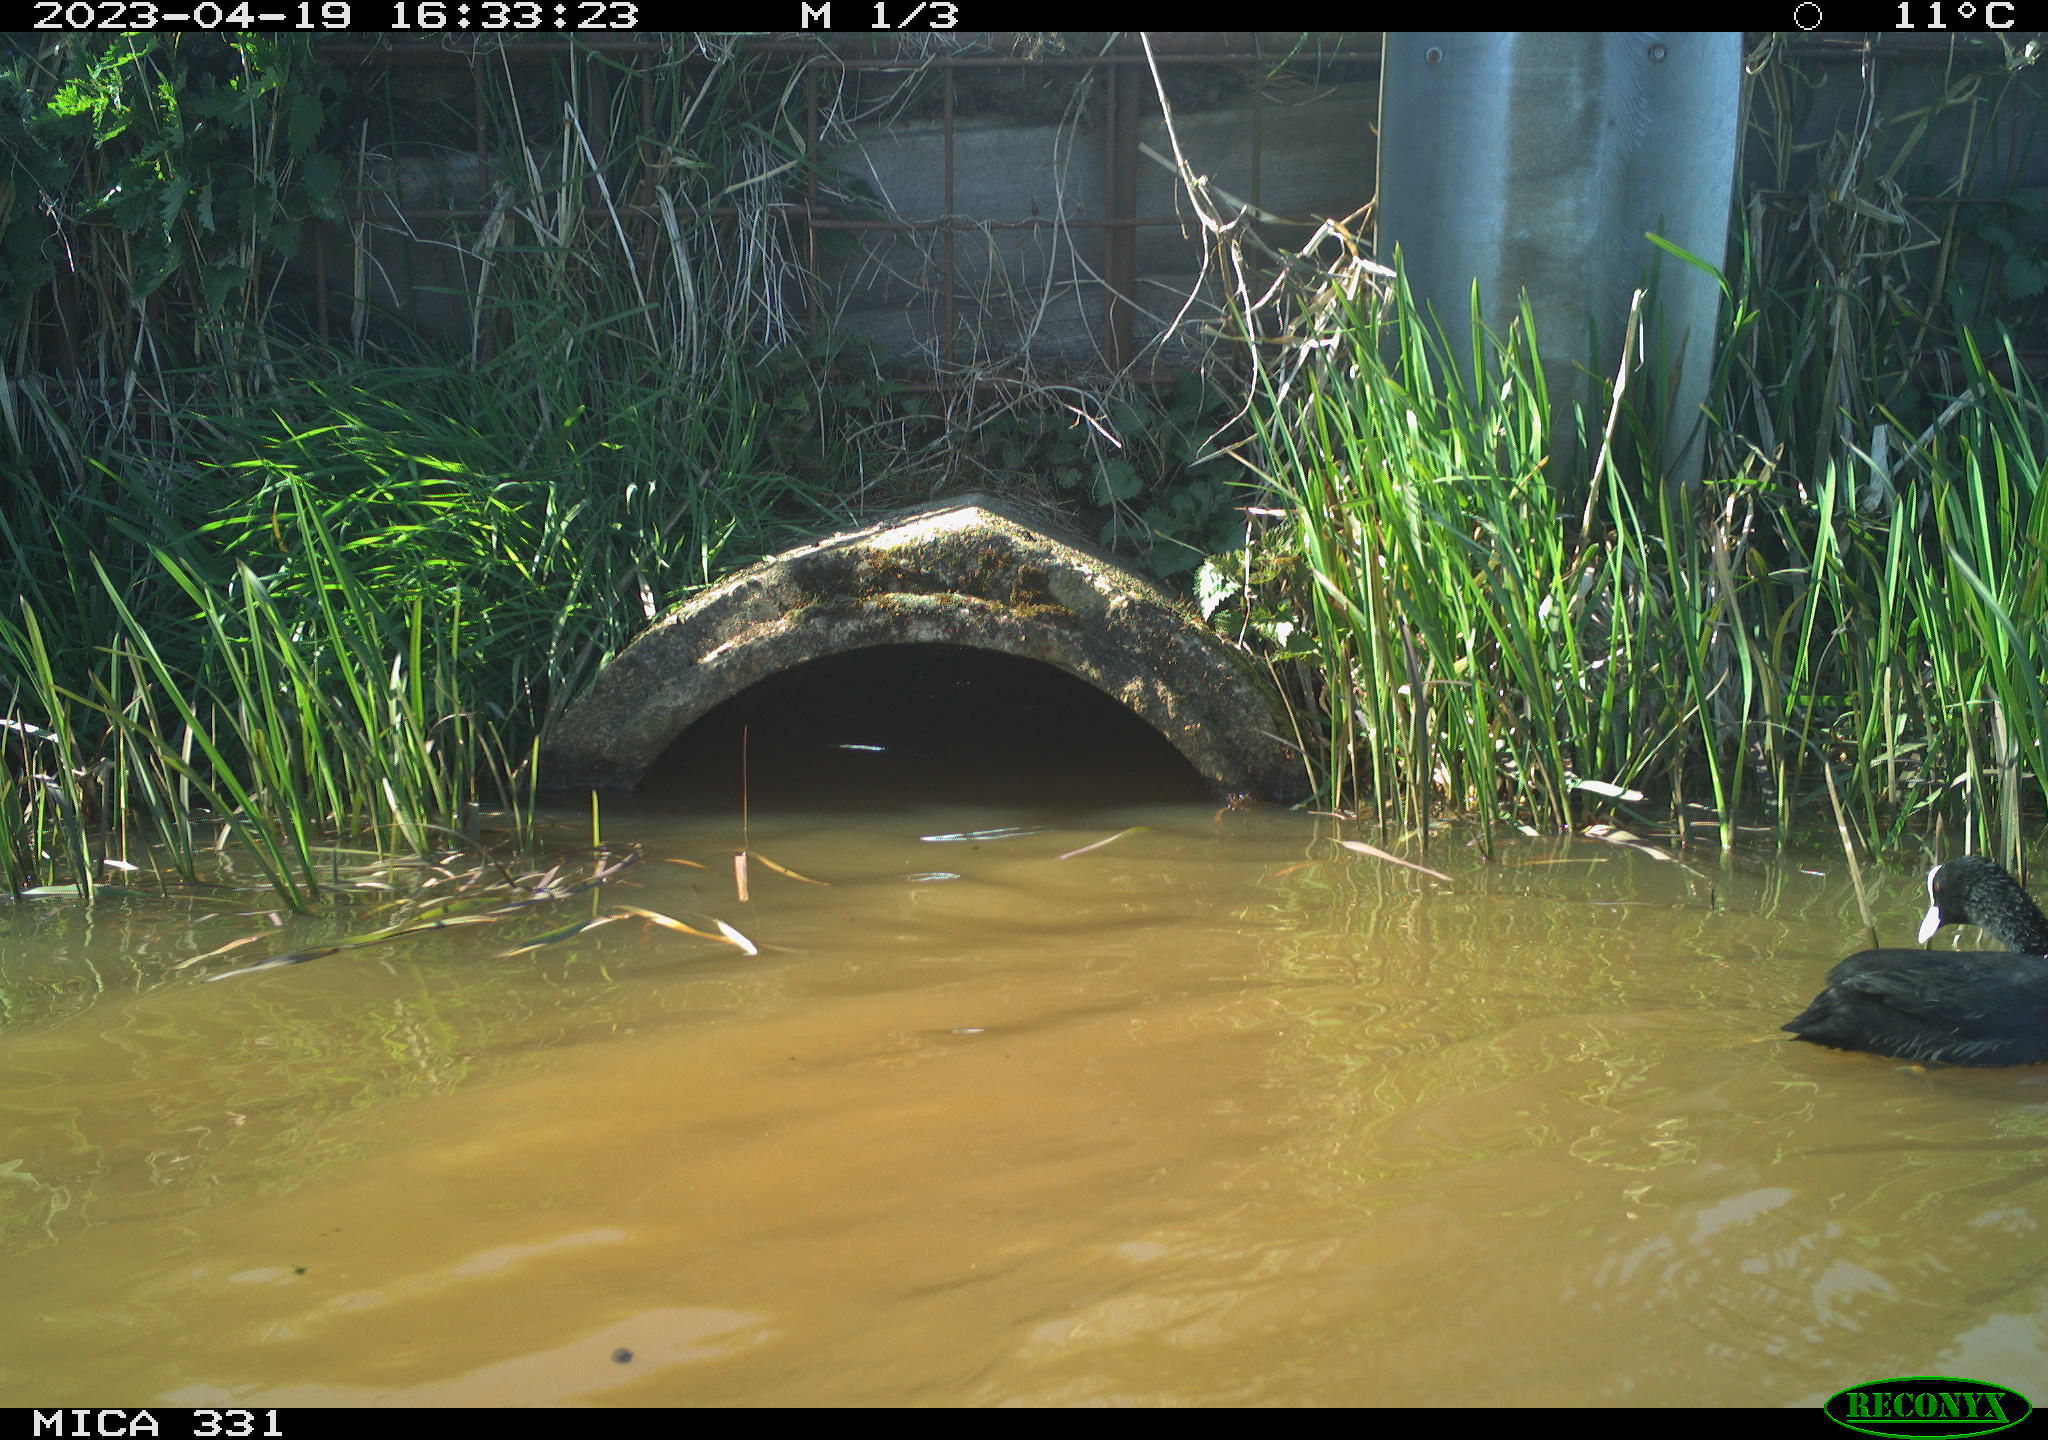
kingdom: Animalia
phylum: Chordata
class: Aves
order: Gruiformes
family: Rallidae
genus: Fulica
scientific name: Fulica atra
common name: Eurasian coot
